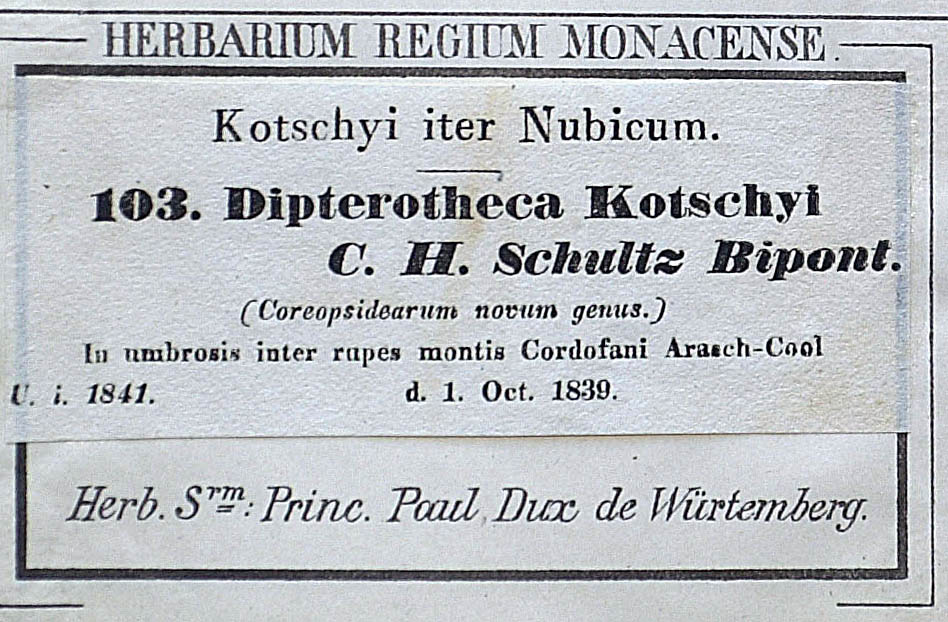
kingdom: Plantae
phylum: Tracheophyta
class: Magnoliopsida
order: Asterales
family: Asteraceae
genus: Aspilia
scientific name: Aspilia kotschyi
